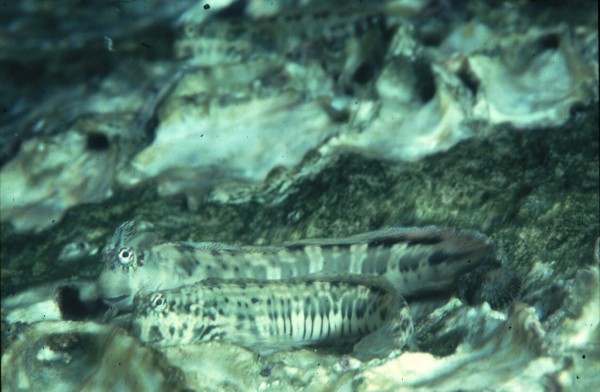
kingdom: Animalia
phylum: Chordata
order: Perciformes
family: Blenniidae
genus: Istiblennius
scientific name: Istiblennius dussumieri
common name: Dussumier's rockskipper
